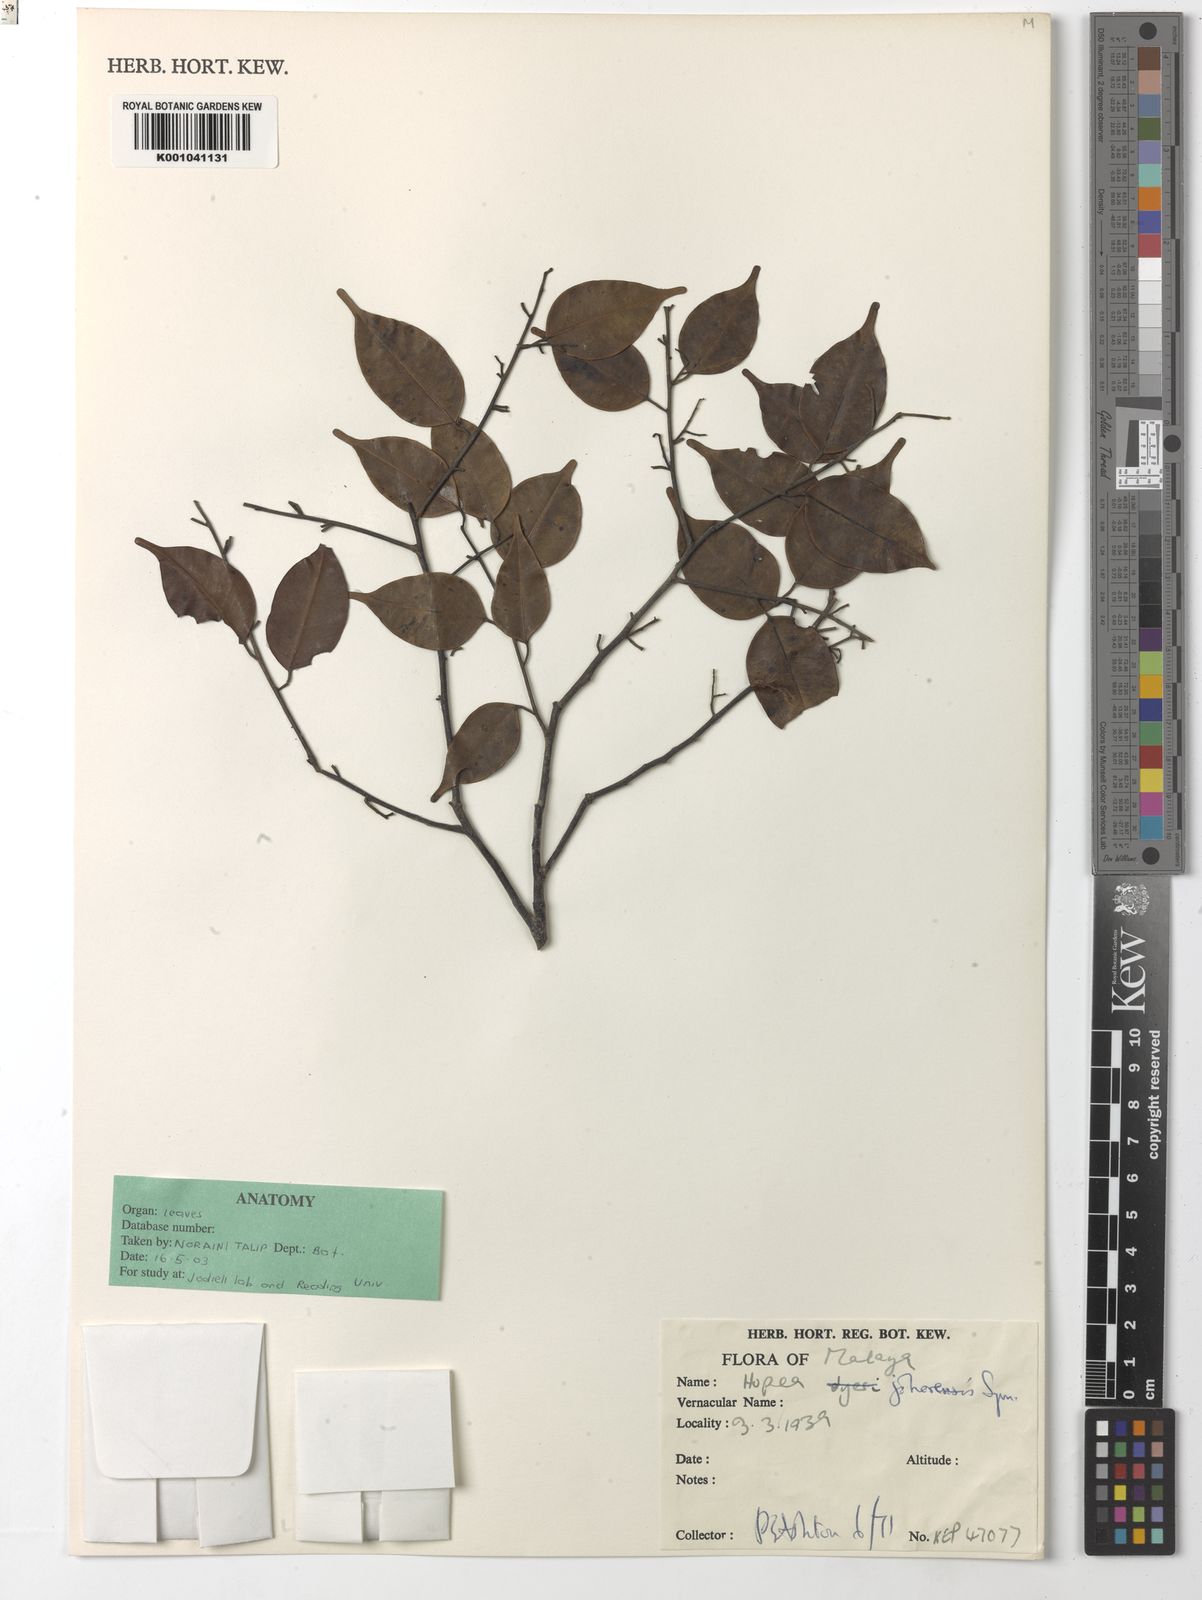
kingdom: Plantae
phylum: Tracheophyta
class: Magnoliopsida
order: Malvales
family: Dipterocarpaceae
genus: Hopea
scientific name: Hopea johorensis
